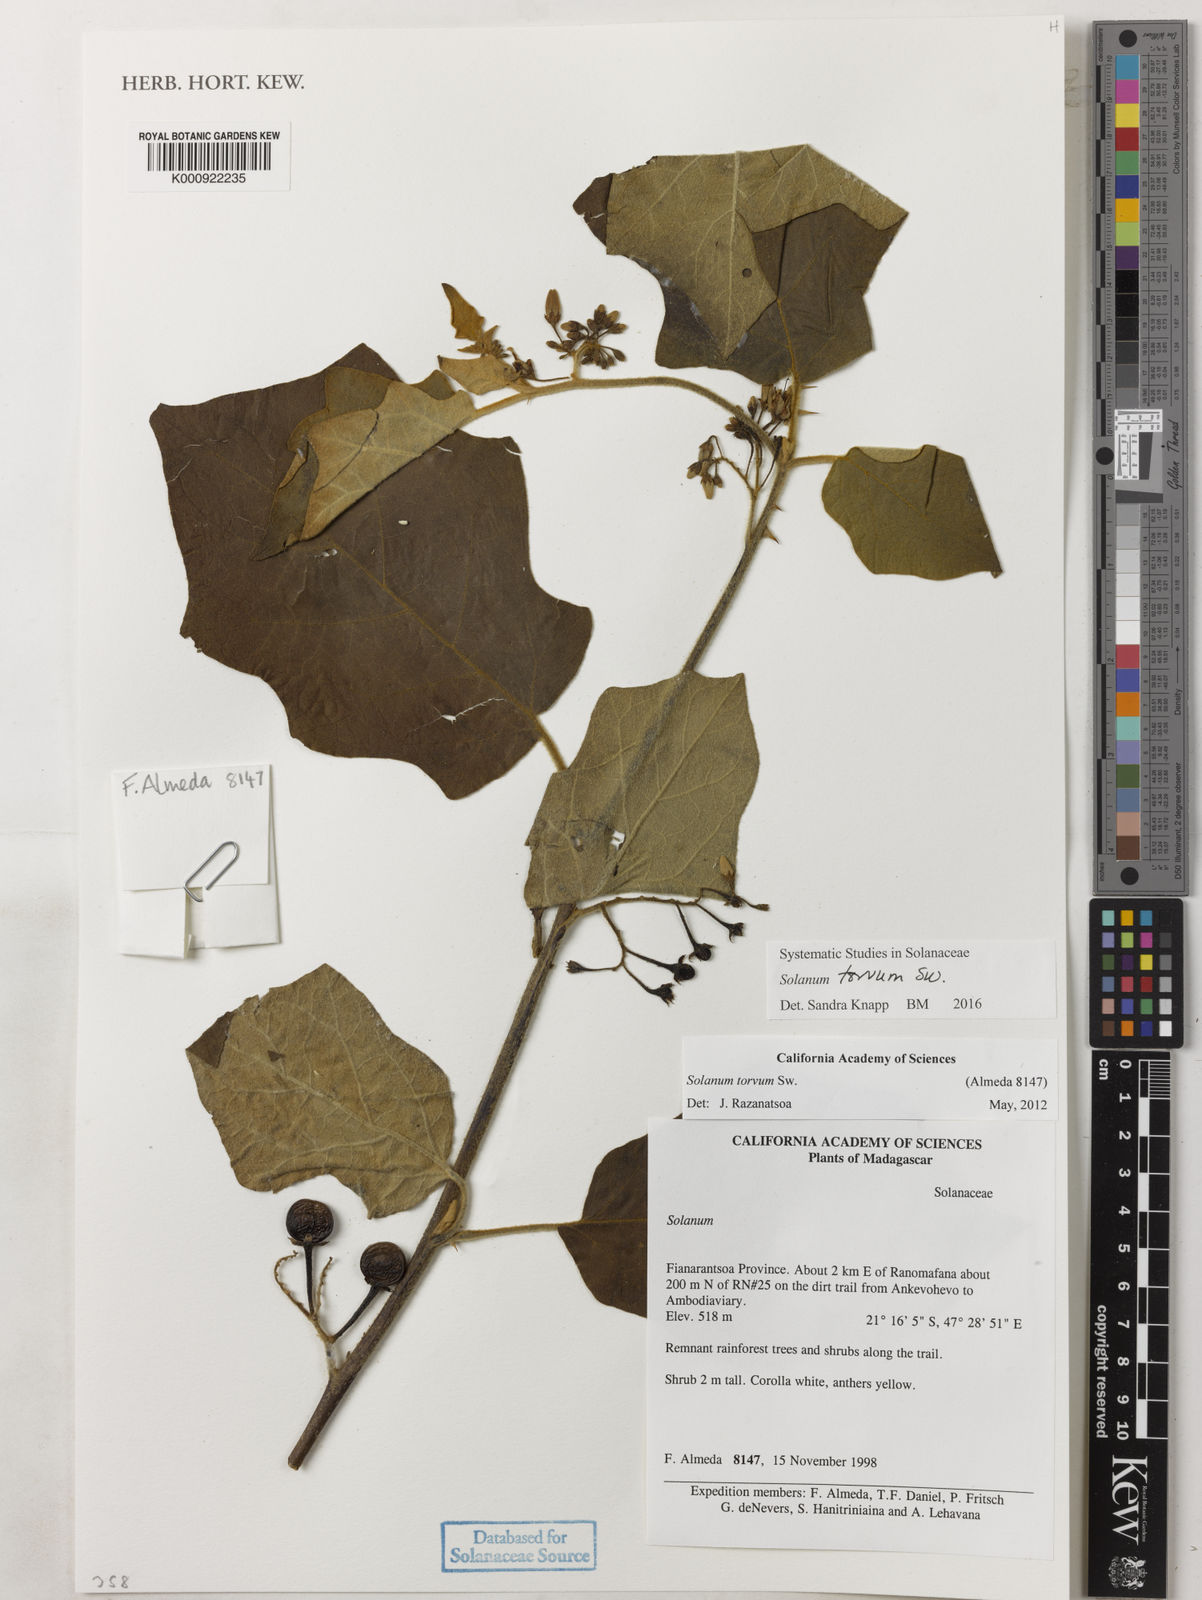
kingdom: Plantae
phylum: Tracheophyta
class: Magnoliopsida
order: Solanales
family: Solanaceae
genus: Solanum
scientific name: Solanum torvum
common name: Turkey berry
